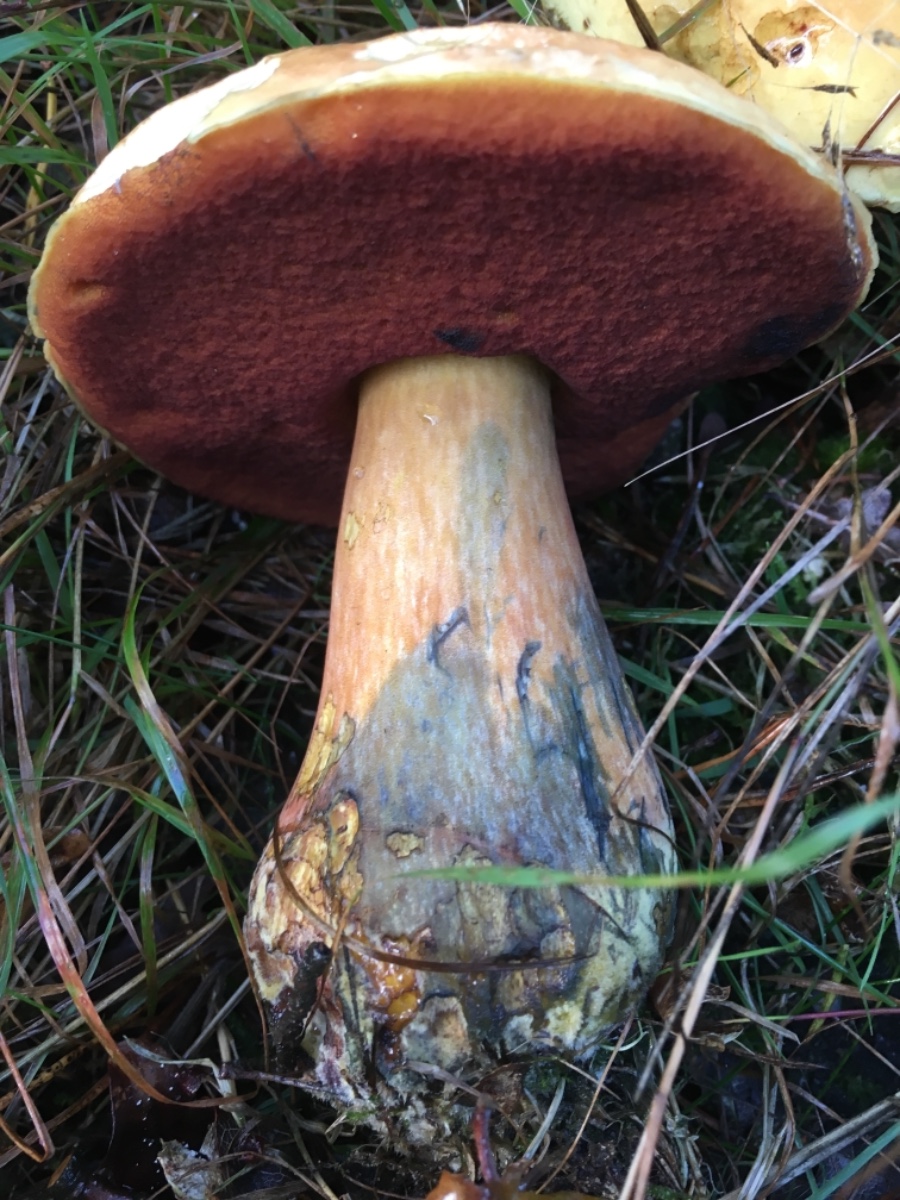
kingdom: Fungi
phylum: Basidiomycota
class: Agaricomycetes
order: Boletales
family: Boletaceae
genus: Neoboletus
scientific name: Neoboletus erythropus
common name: punktstokket indigorørhat
